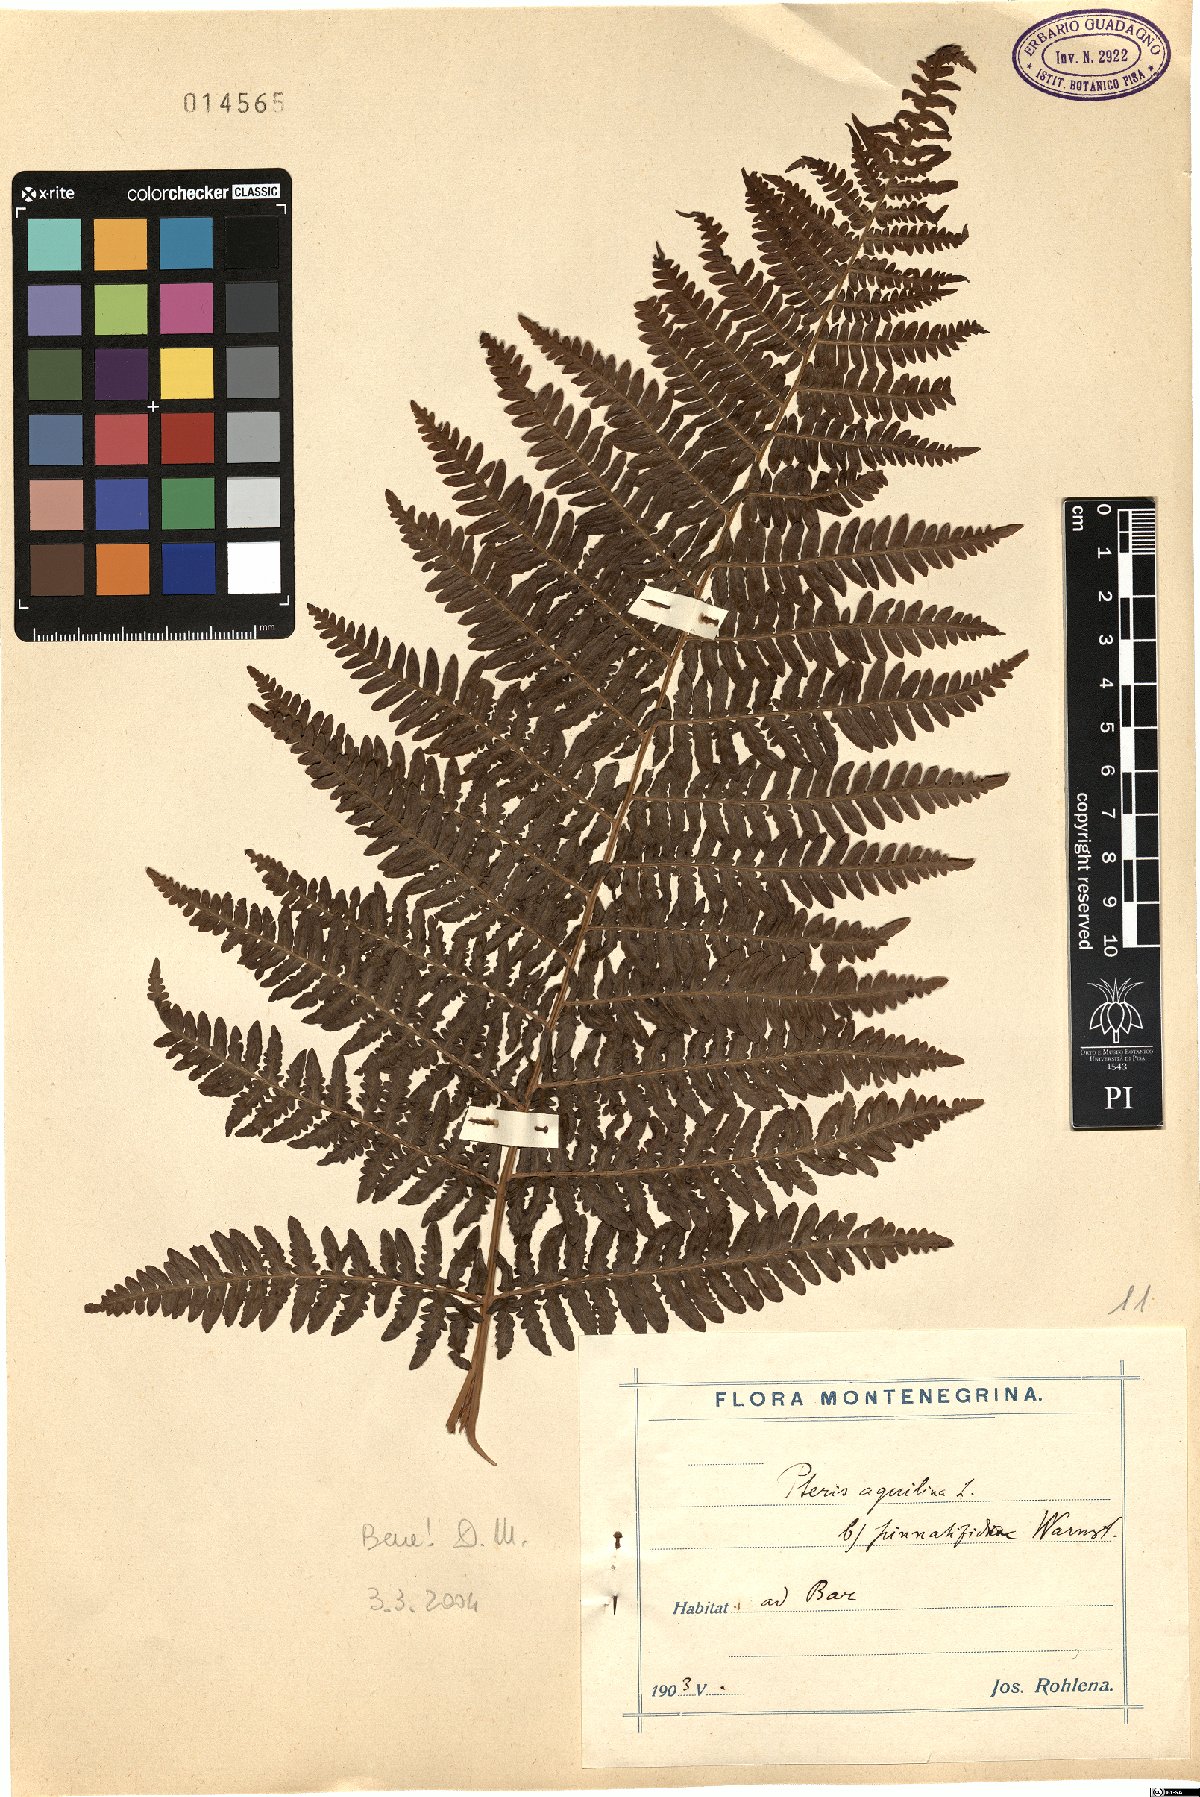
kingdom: Plantae
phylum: Tracheophyta
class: Polypodiopsida
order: Polypodiales
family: Dennstaedtiaceae
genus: Pteridium
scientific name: Pteridium aquilinum
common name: Bracken
